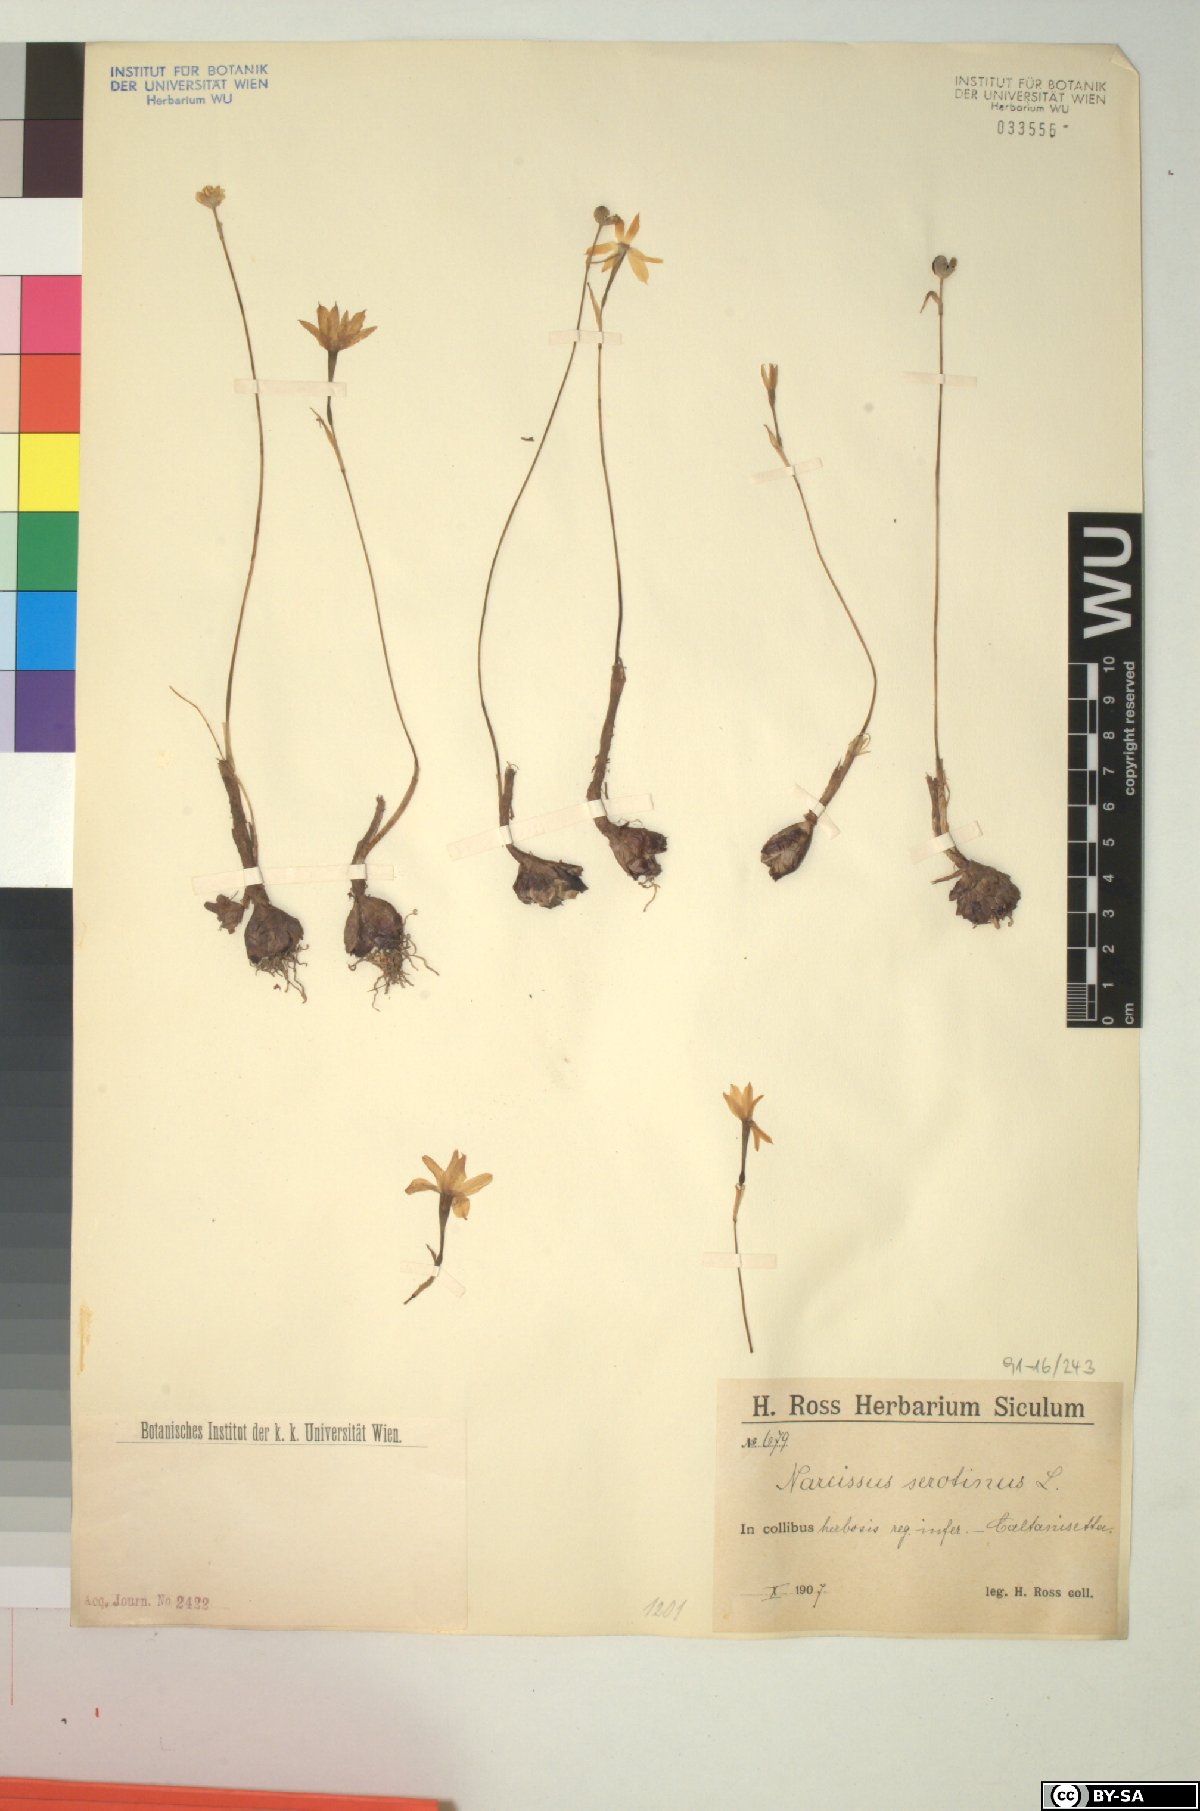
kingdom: Plantae
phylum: Tracheophyta
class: Liliopsida
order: Asparagales
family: Amaryllidaceae
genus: Narcissus
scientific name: Narcissus serotinus
